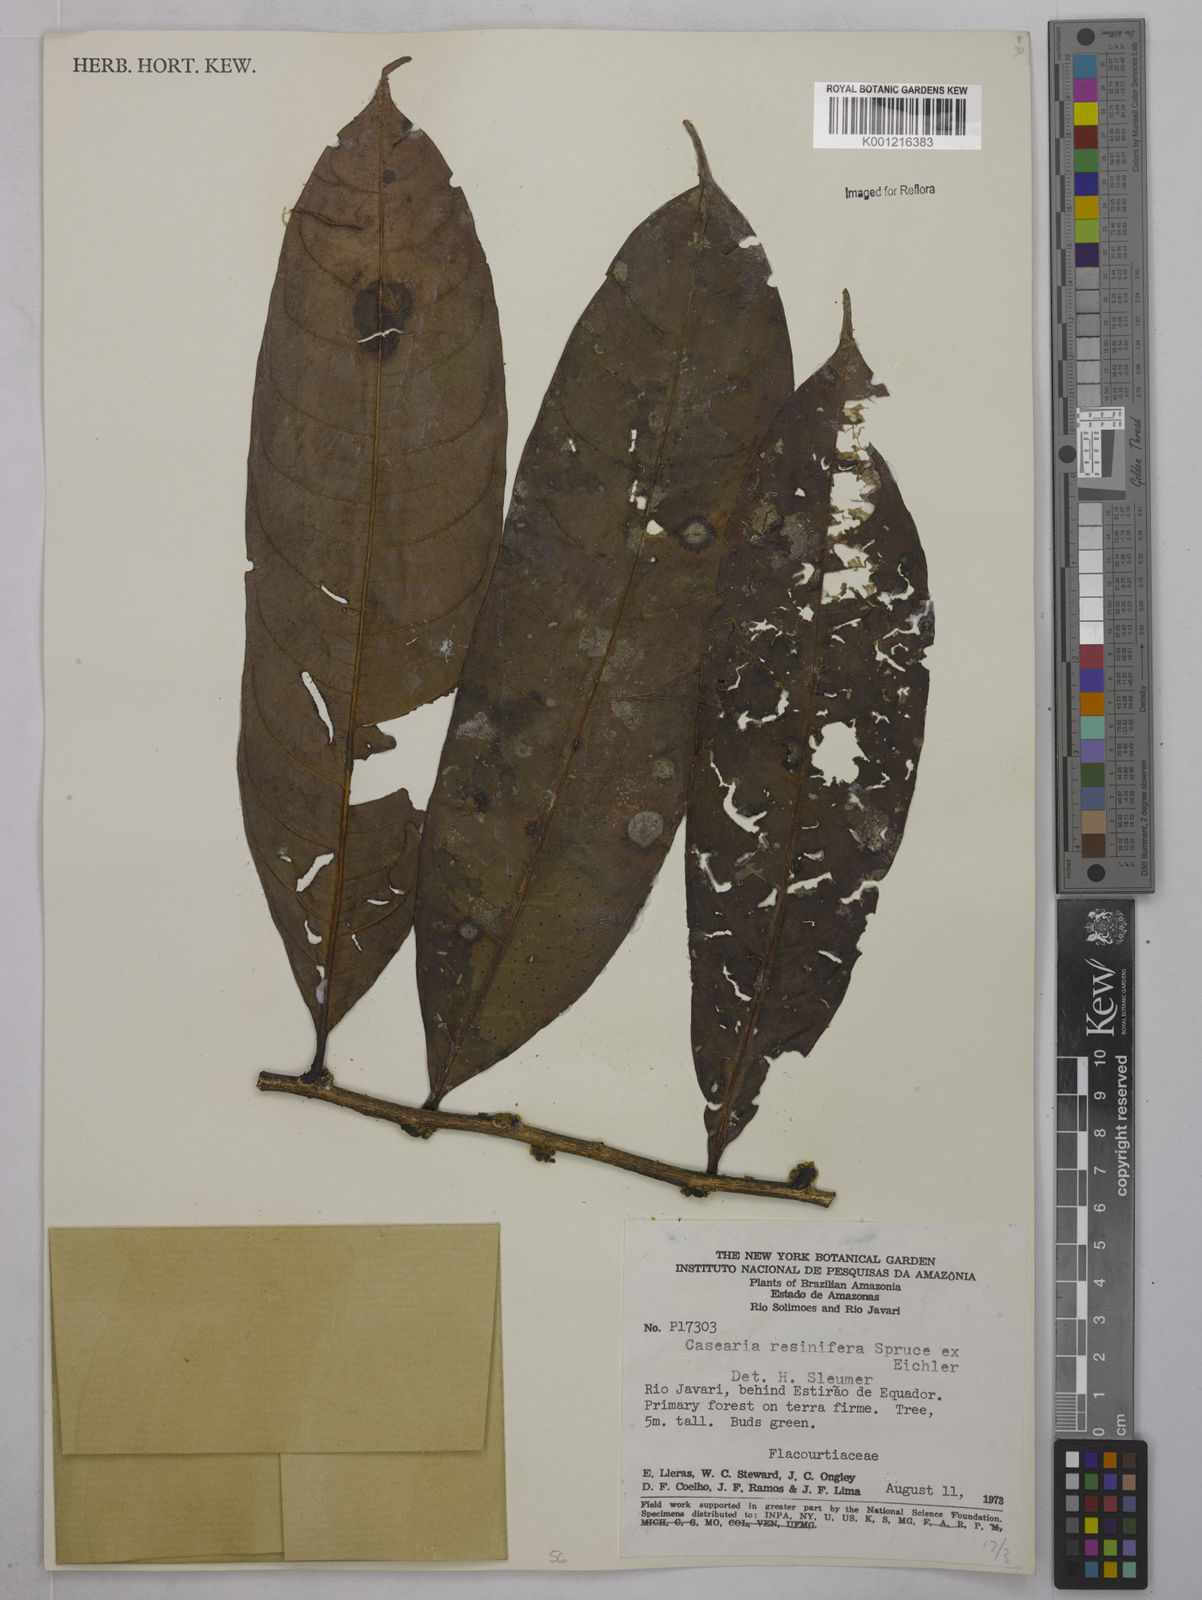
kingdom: Plantae
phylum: Tracheophyta
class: Magnoliopsida
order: Malpighiales
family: Salicaceae
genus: Casearia
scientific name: Casearia resinifera
